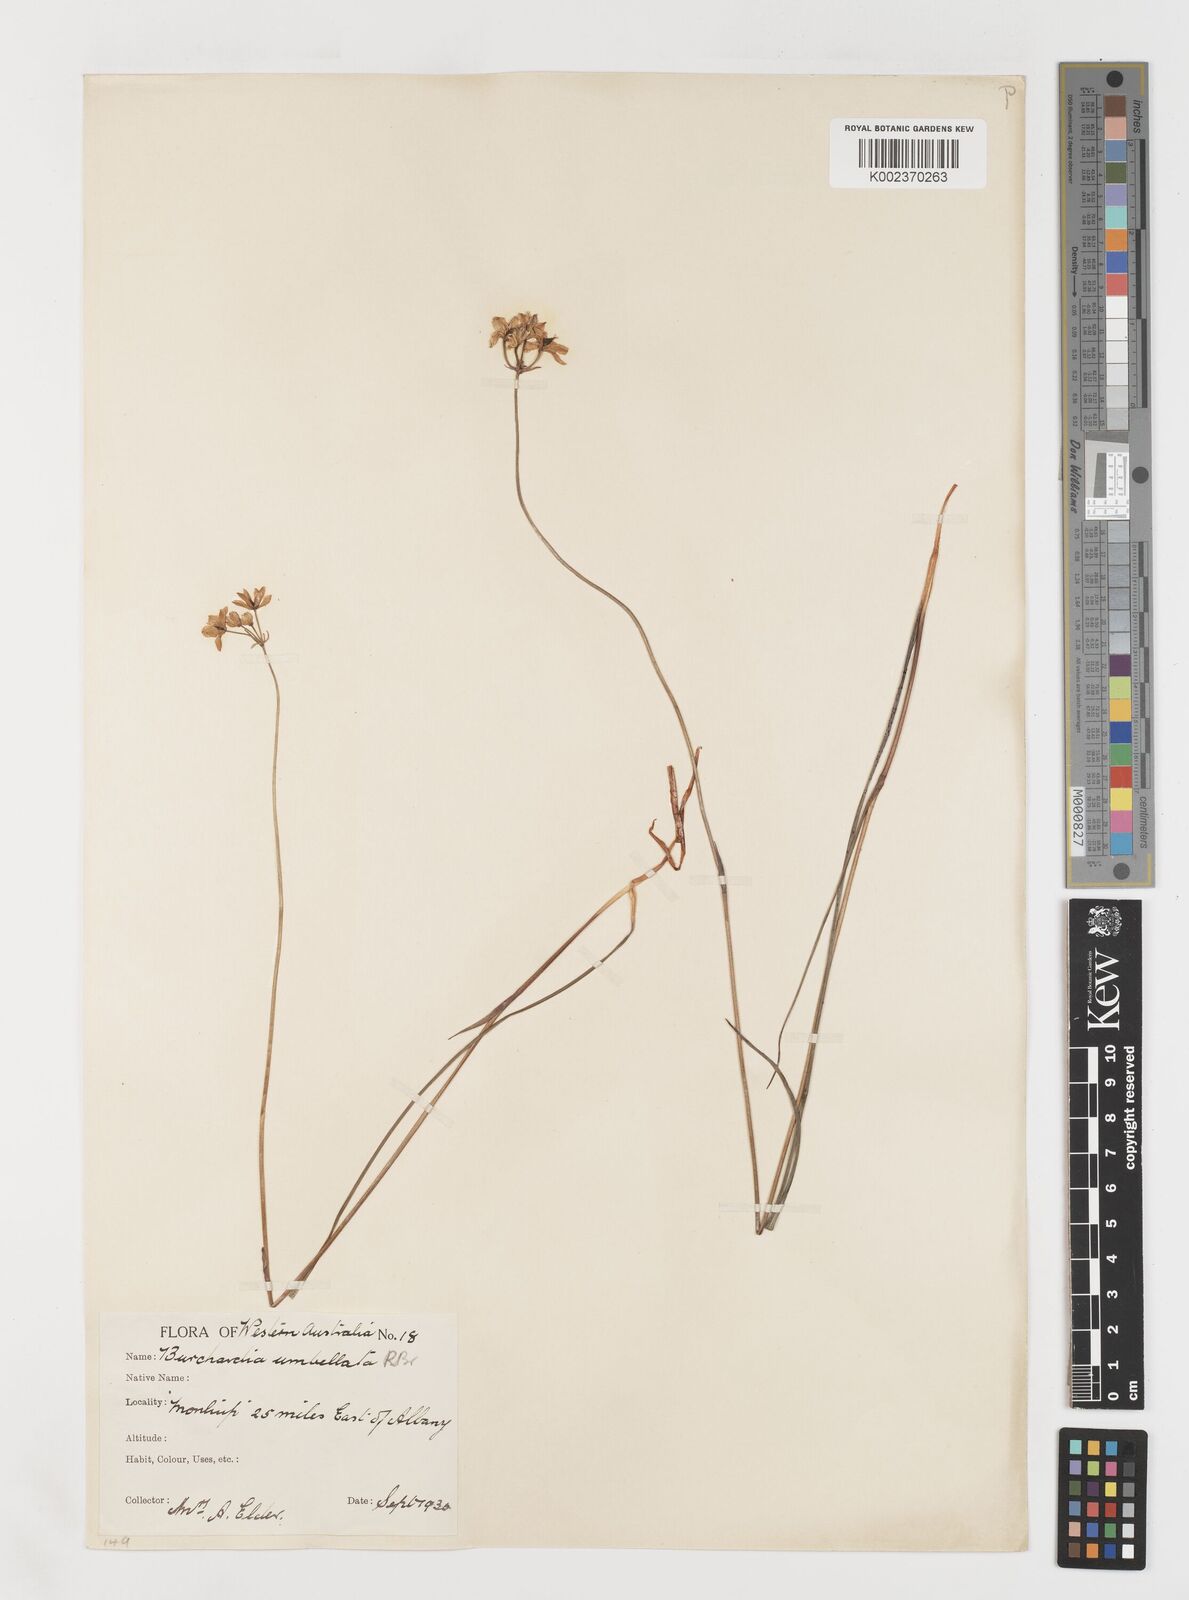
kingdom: Plantae
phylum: Tracheophyta
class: Liliopsida
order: Liliales
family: Colchicaceae
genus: Burchardia
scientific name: Burchardia umbellata
